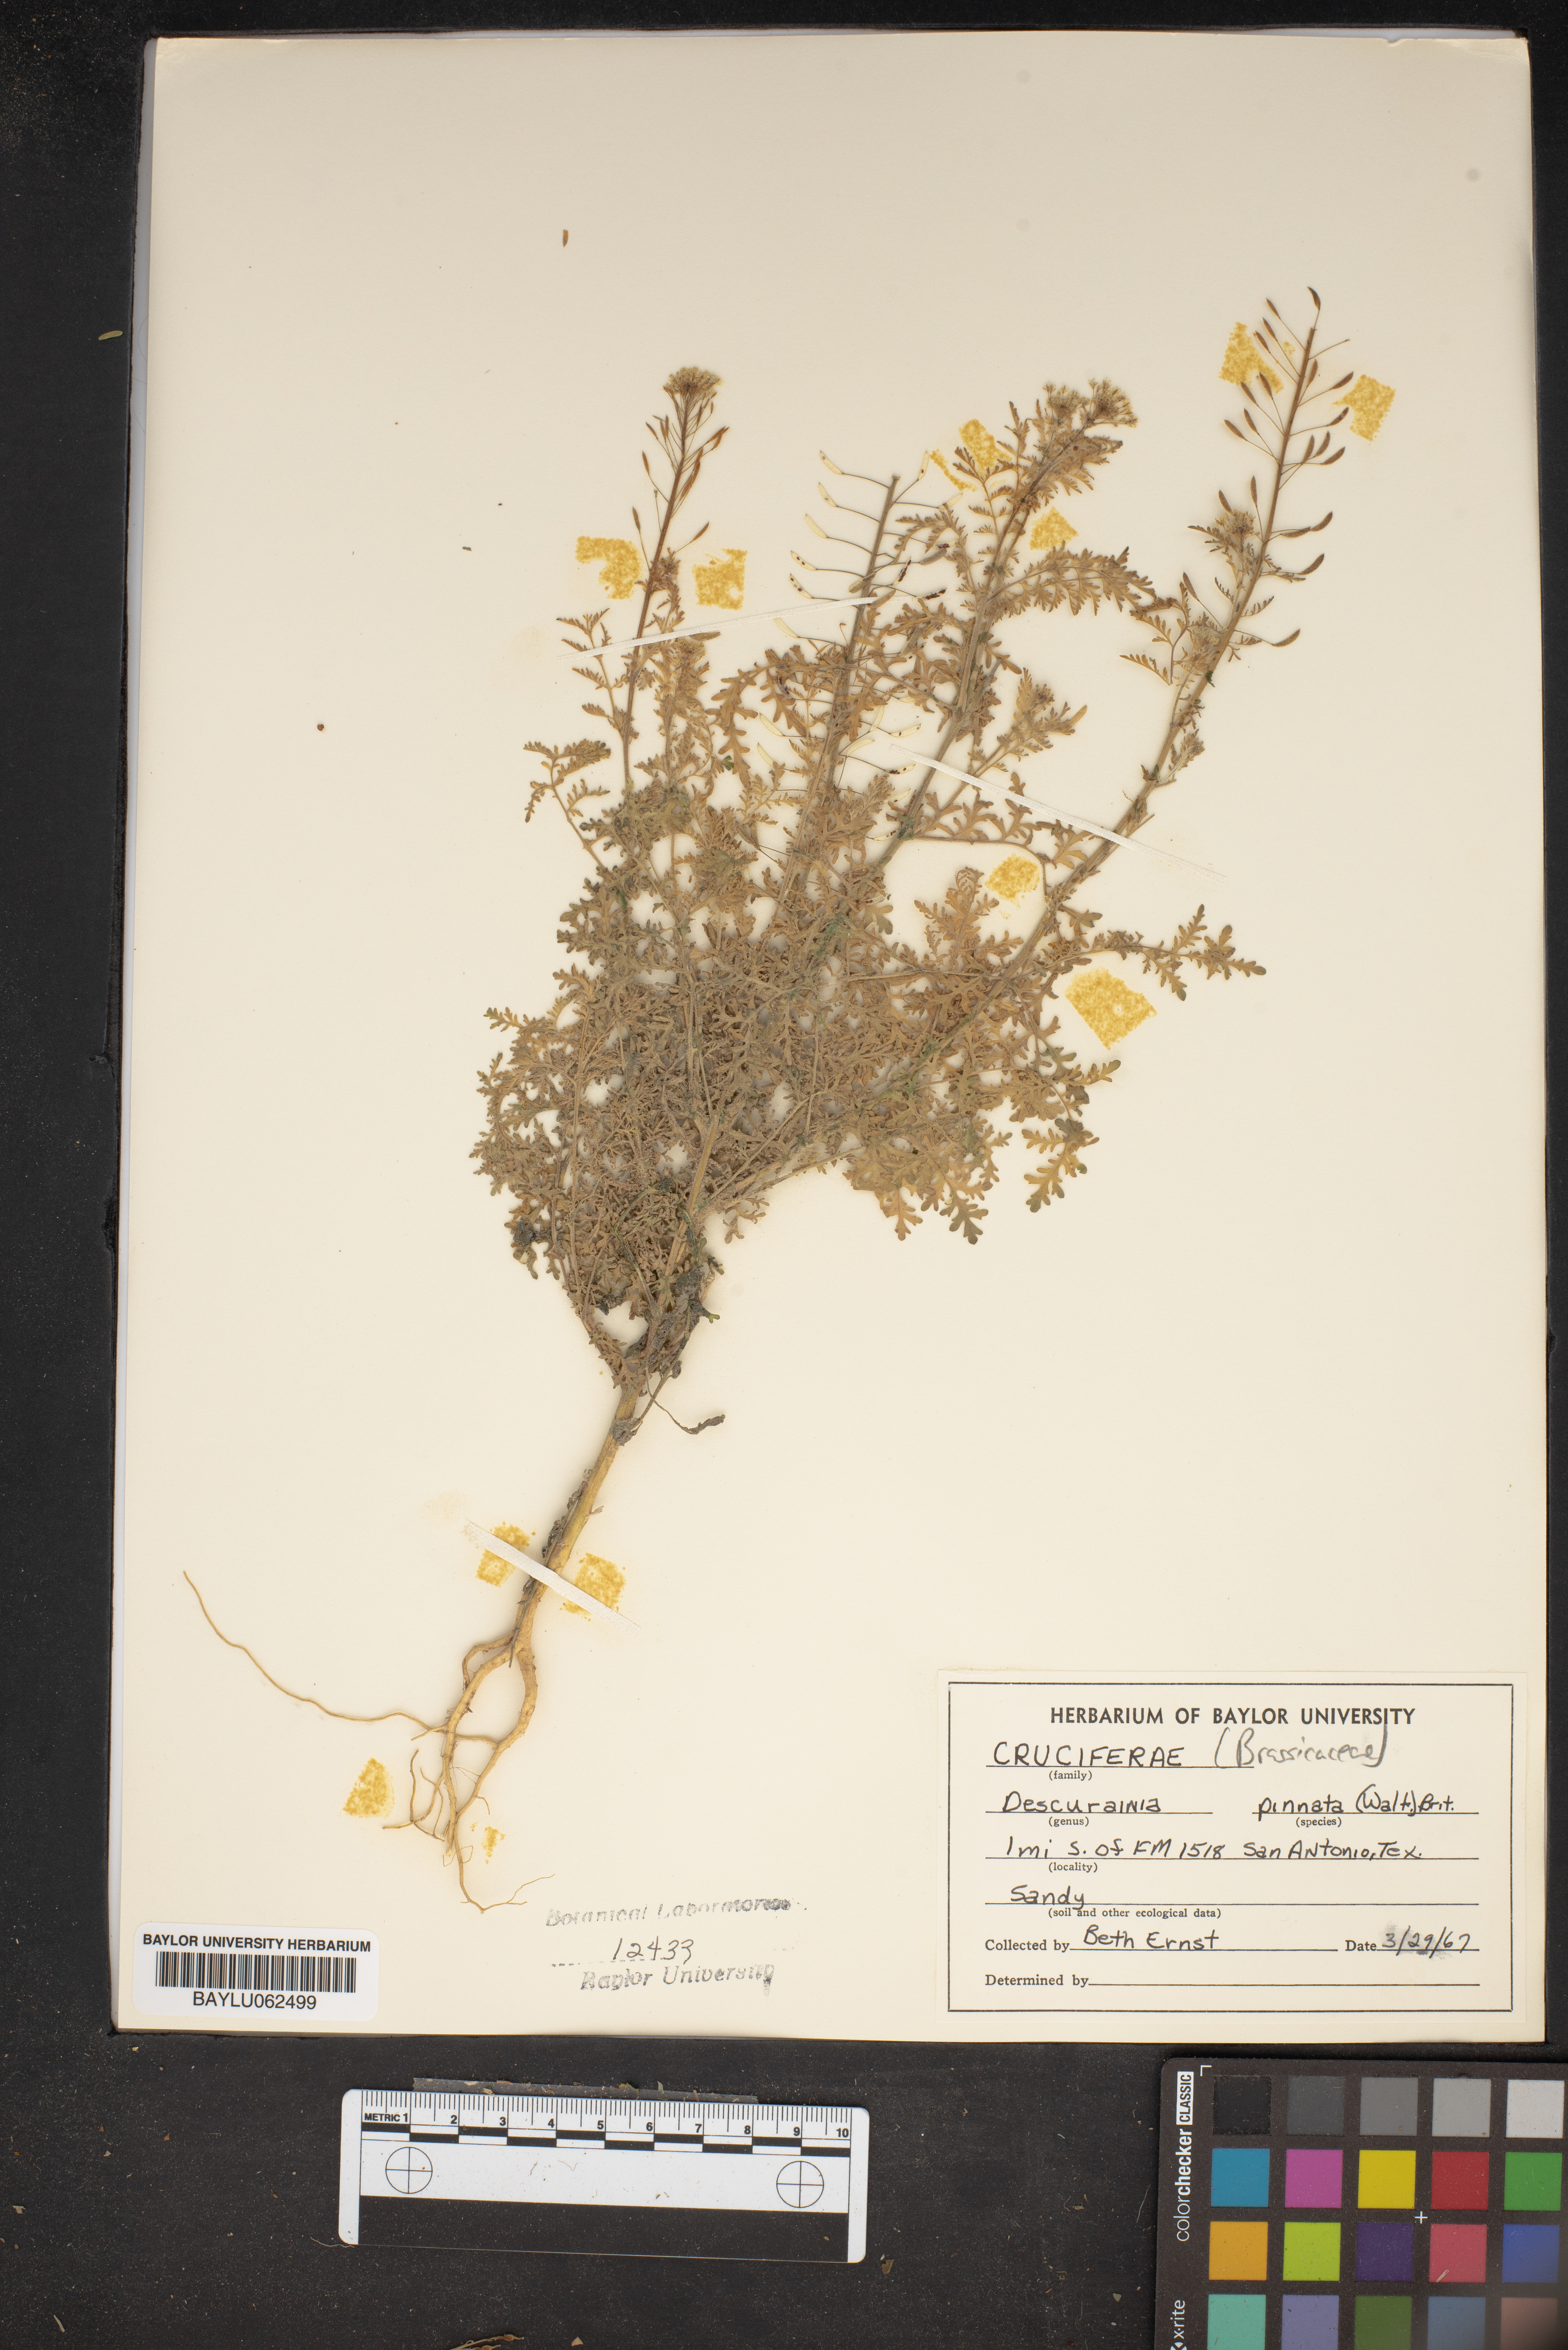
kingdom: Plantae
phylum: Tracheophyta
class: Magnoliopsida
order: Brassicales
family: Brassicaceae
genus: Descurainia
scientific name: Descurainia pinnata
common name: Western tansy mustard
